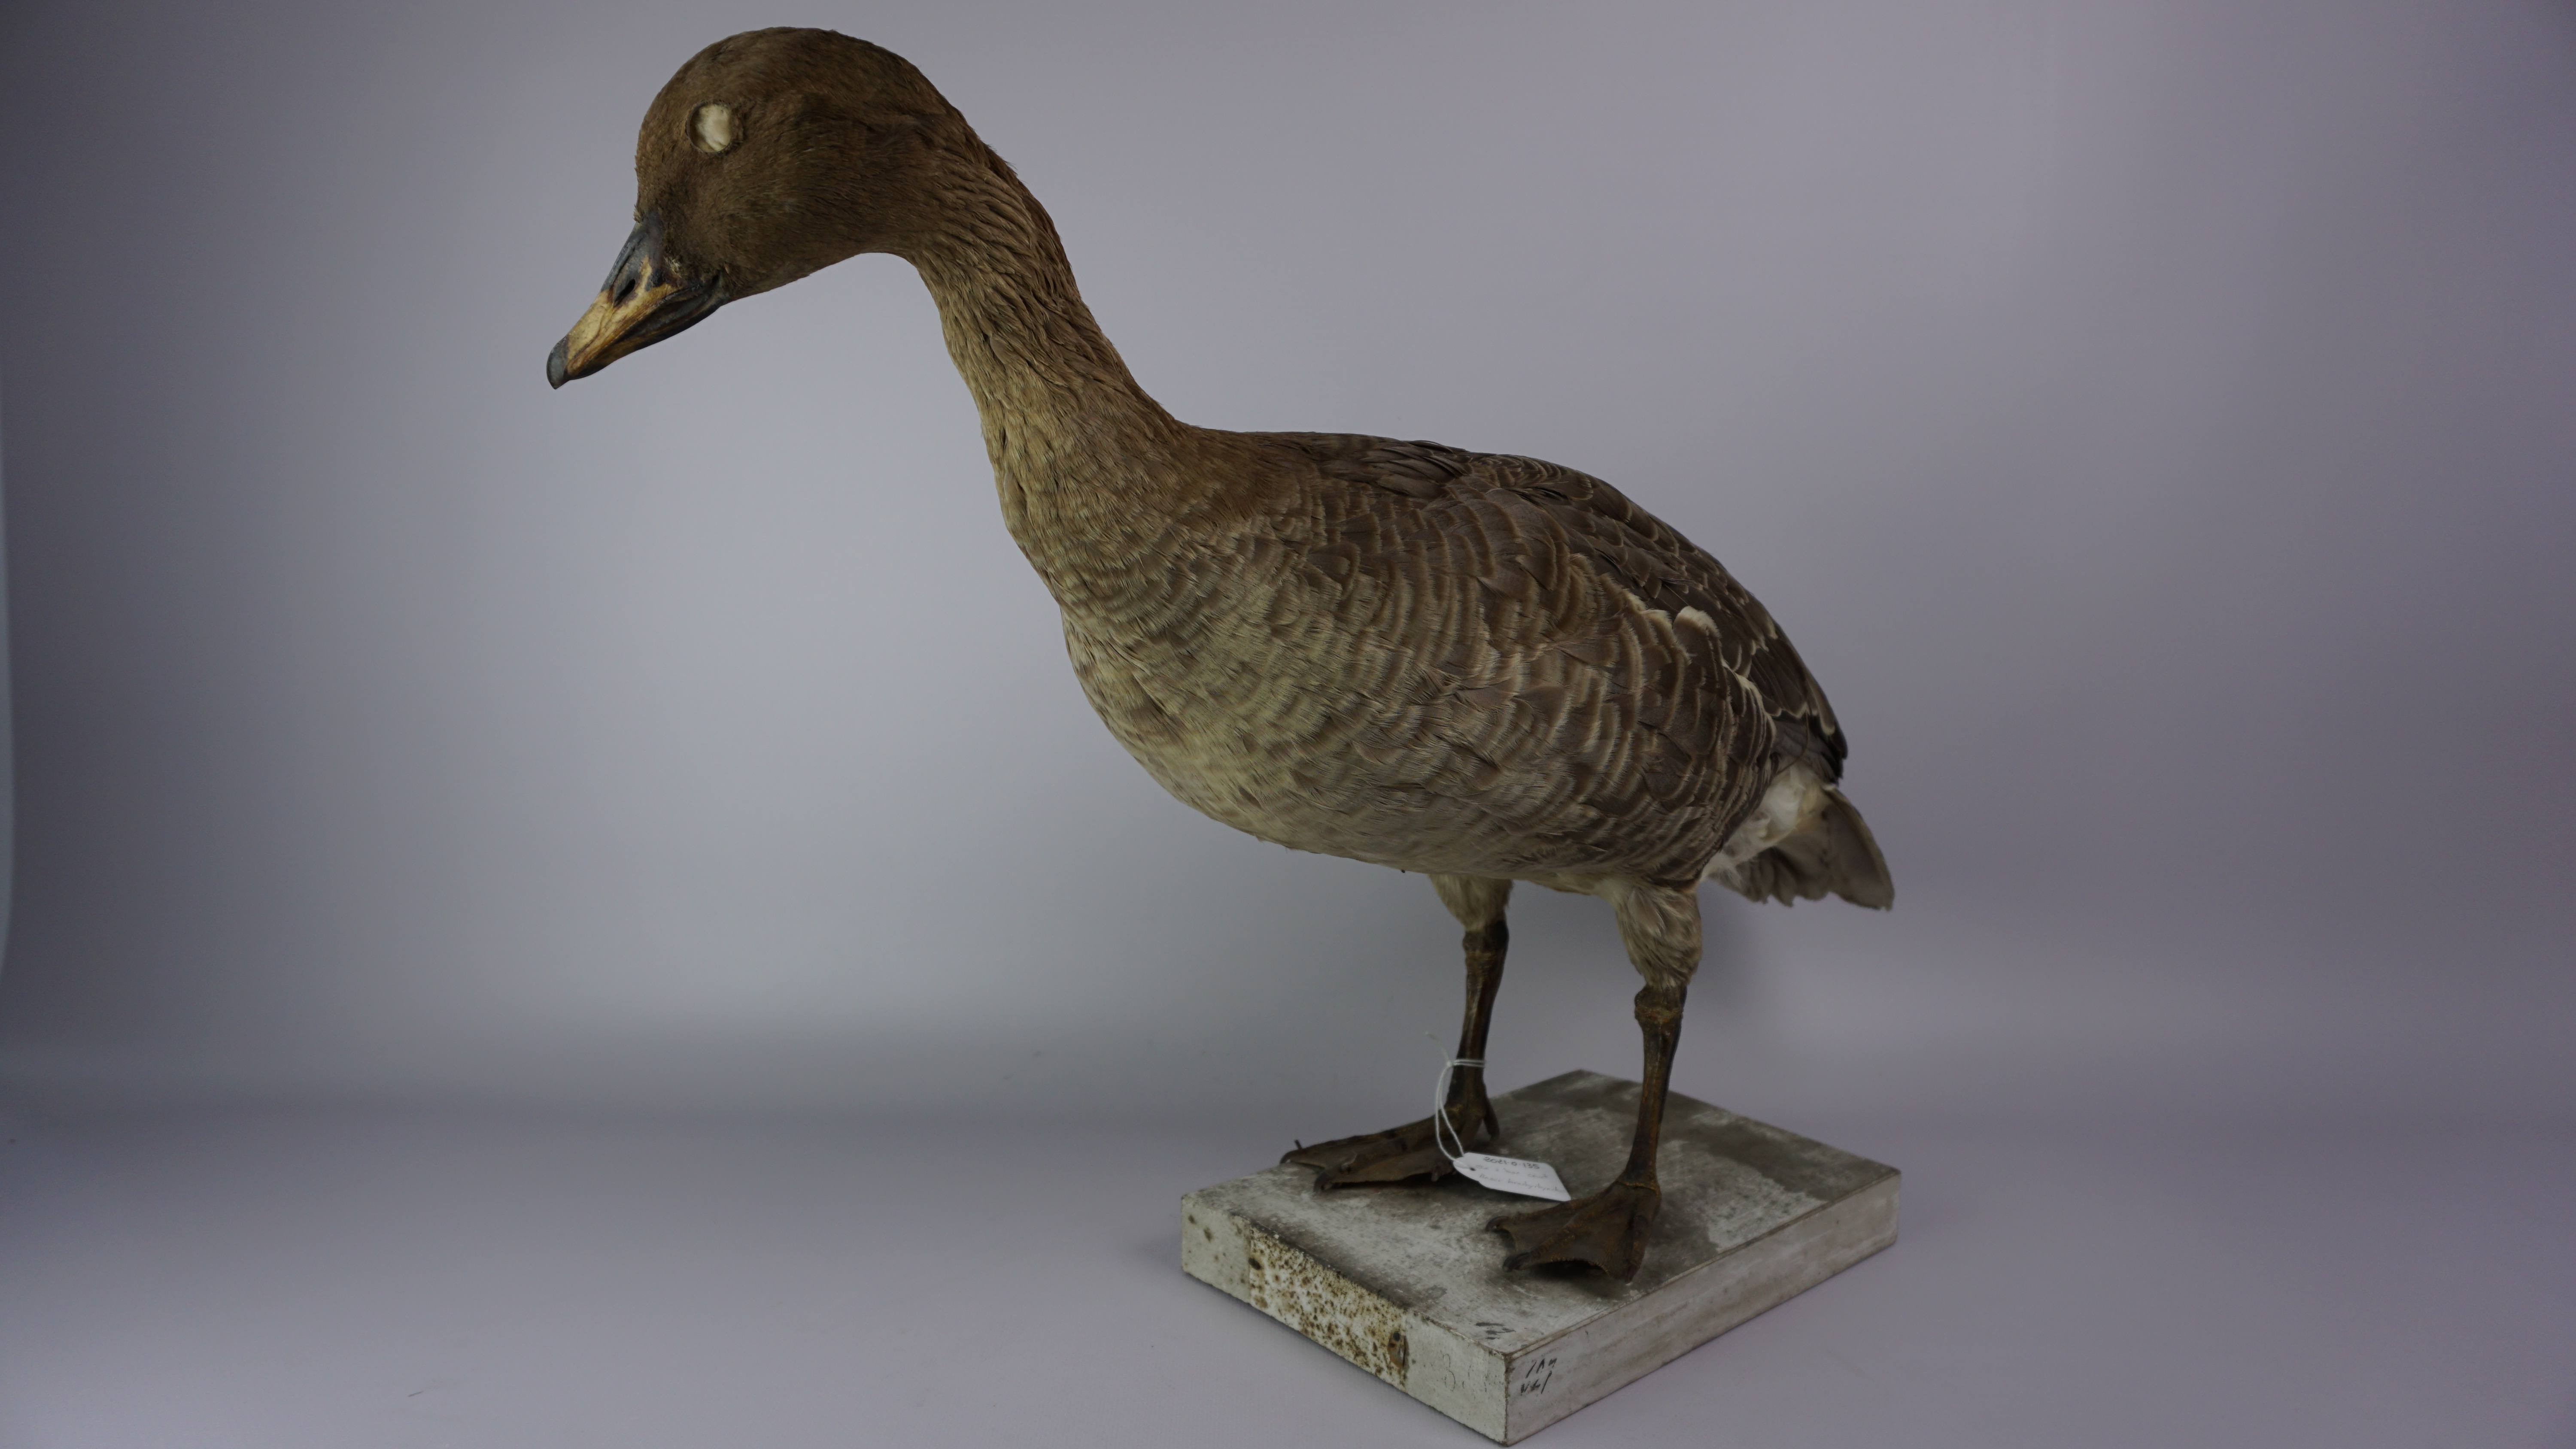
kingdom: Animalia
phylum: Chordata
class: Aves
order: Anseriformes
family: Anatidae
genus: Anser
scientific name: Anser brachyrhynchus
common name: Pink-footed goose
